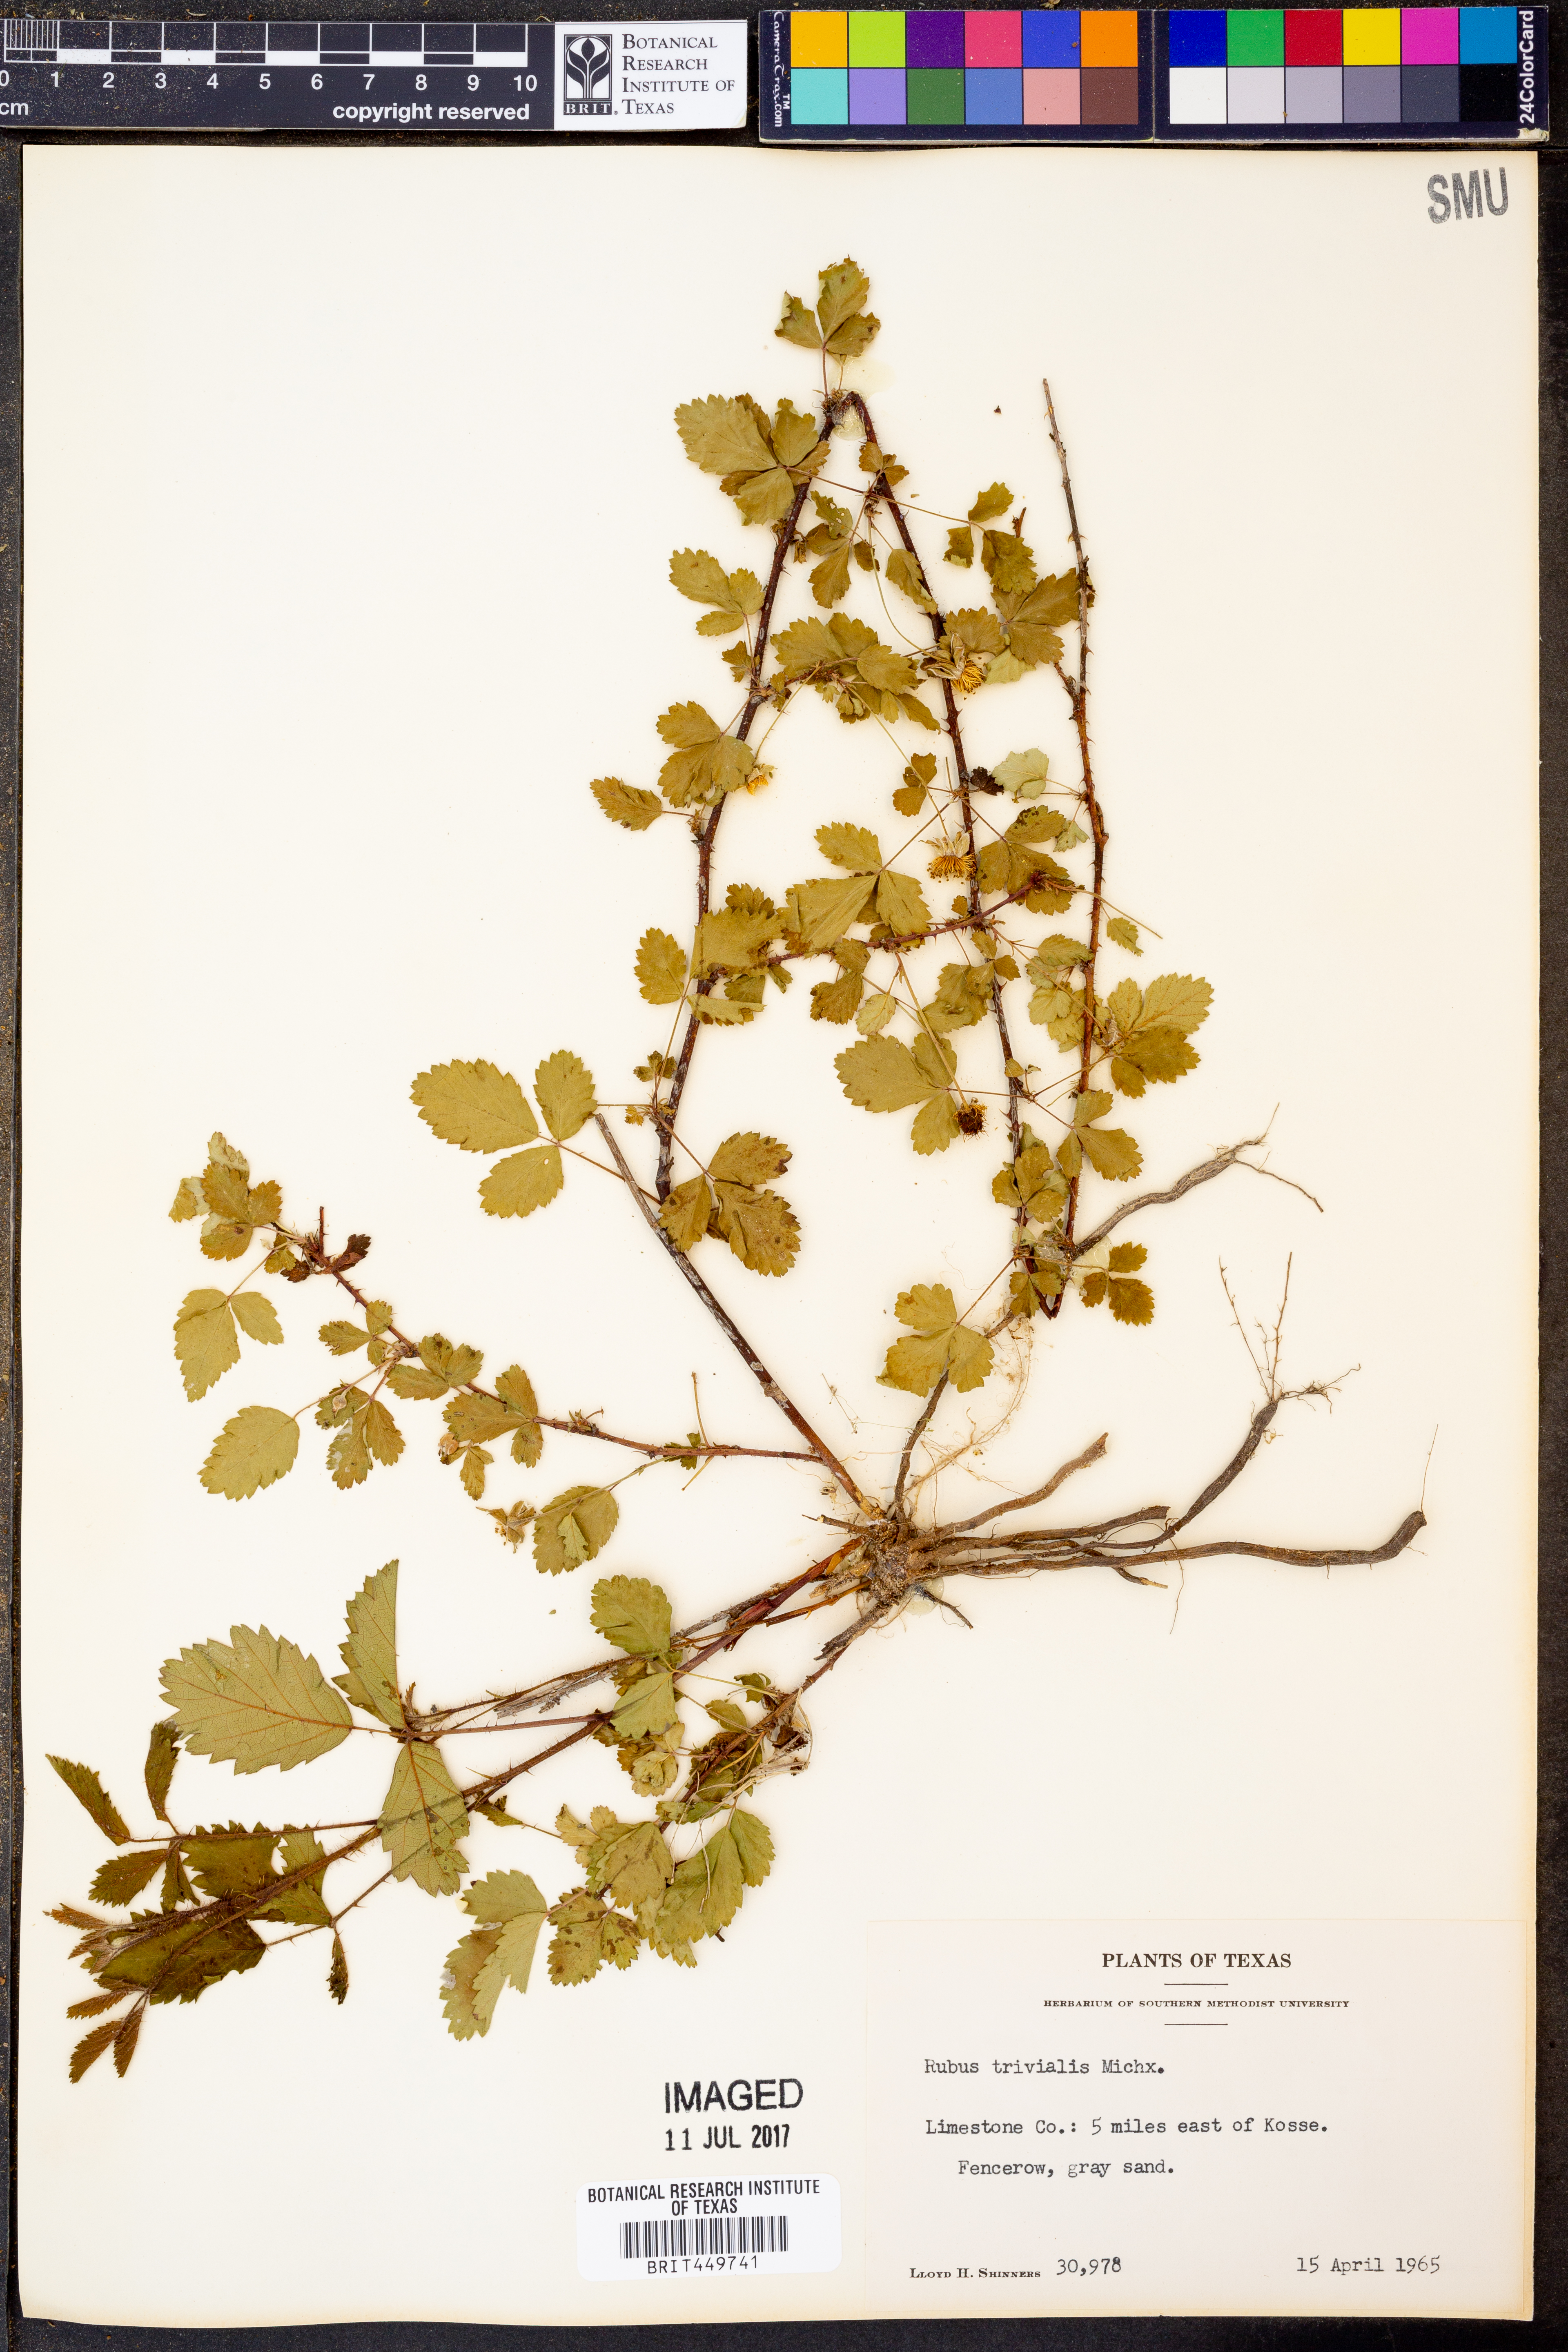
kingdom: Plantae
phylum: Tracheophyta
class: Magnoliopsida
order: Rosales
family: Rosaceae
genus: Rubus
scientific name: Rubus trivialis
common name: Southern dewberry
